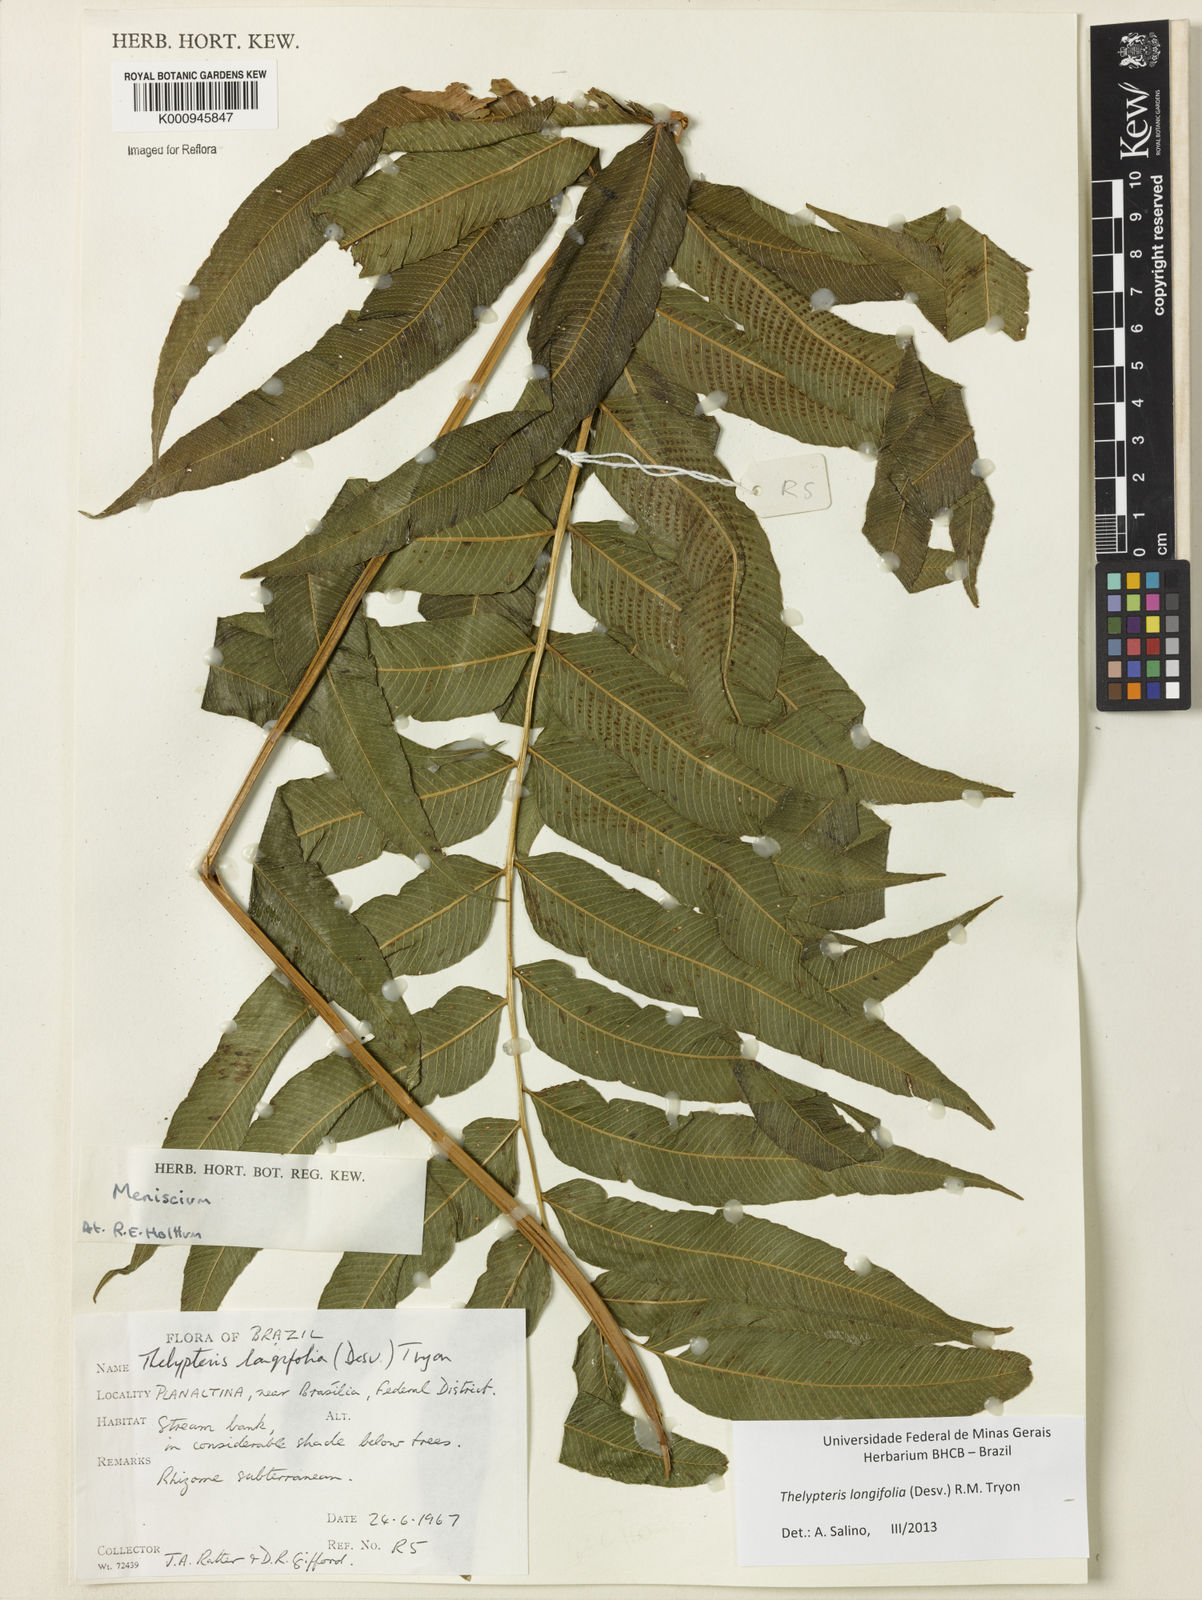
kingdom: Plantae
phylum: Tracheophyta
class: Polypodiopsida
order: Polypodiales
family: Thelypteridaceae
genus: Meniscium
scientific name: Meniscium longifolium
